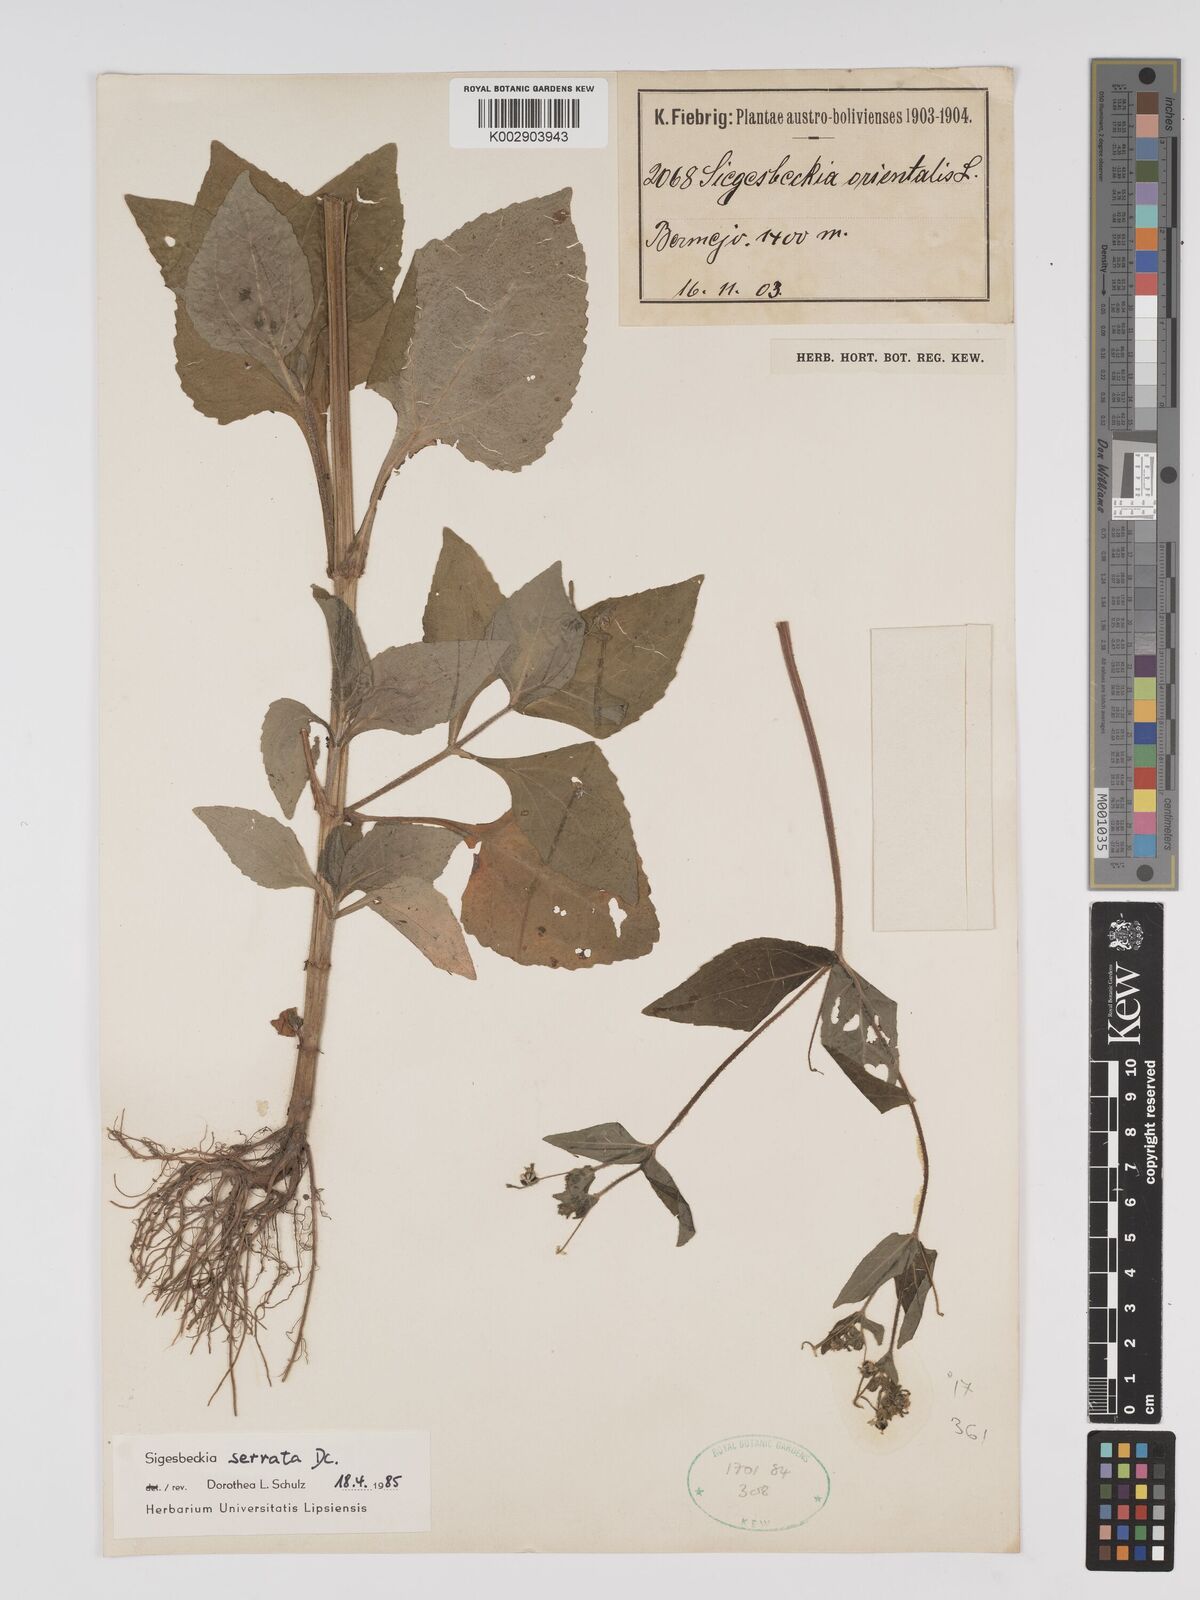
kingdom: Plantae
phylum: Tracheophyta
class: Magnoliopsida
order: Asterales
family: Asteraceae
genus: Sigesbeckia
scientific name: Sigesbeckia jorullensis
